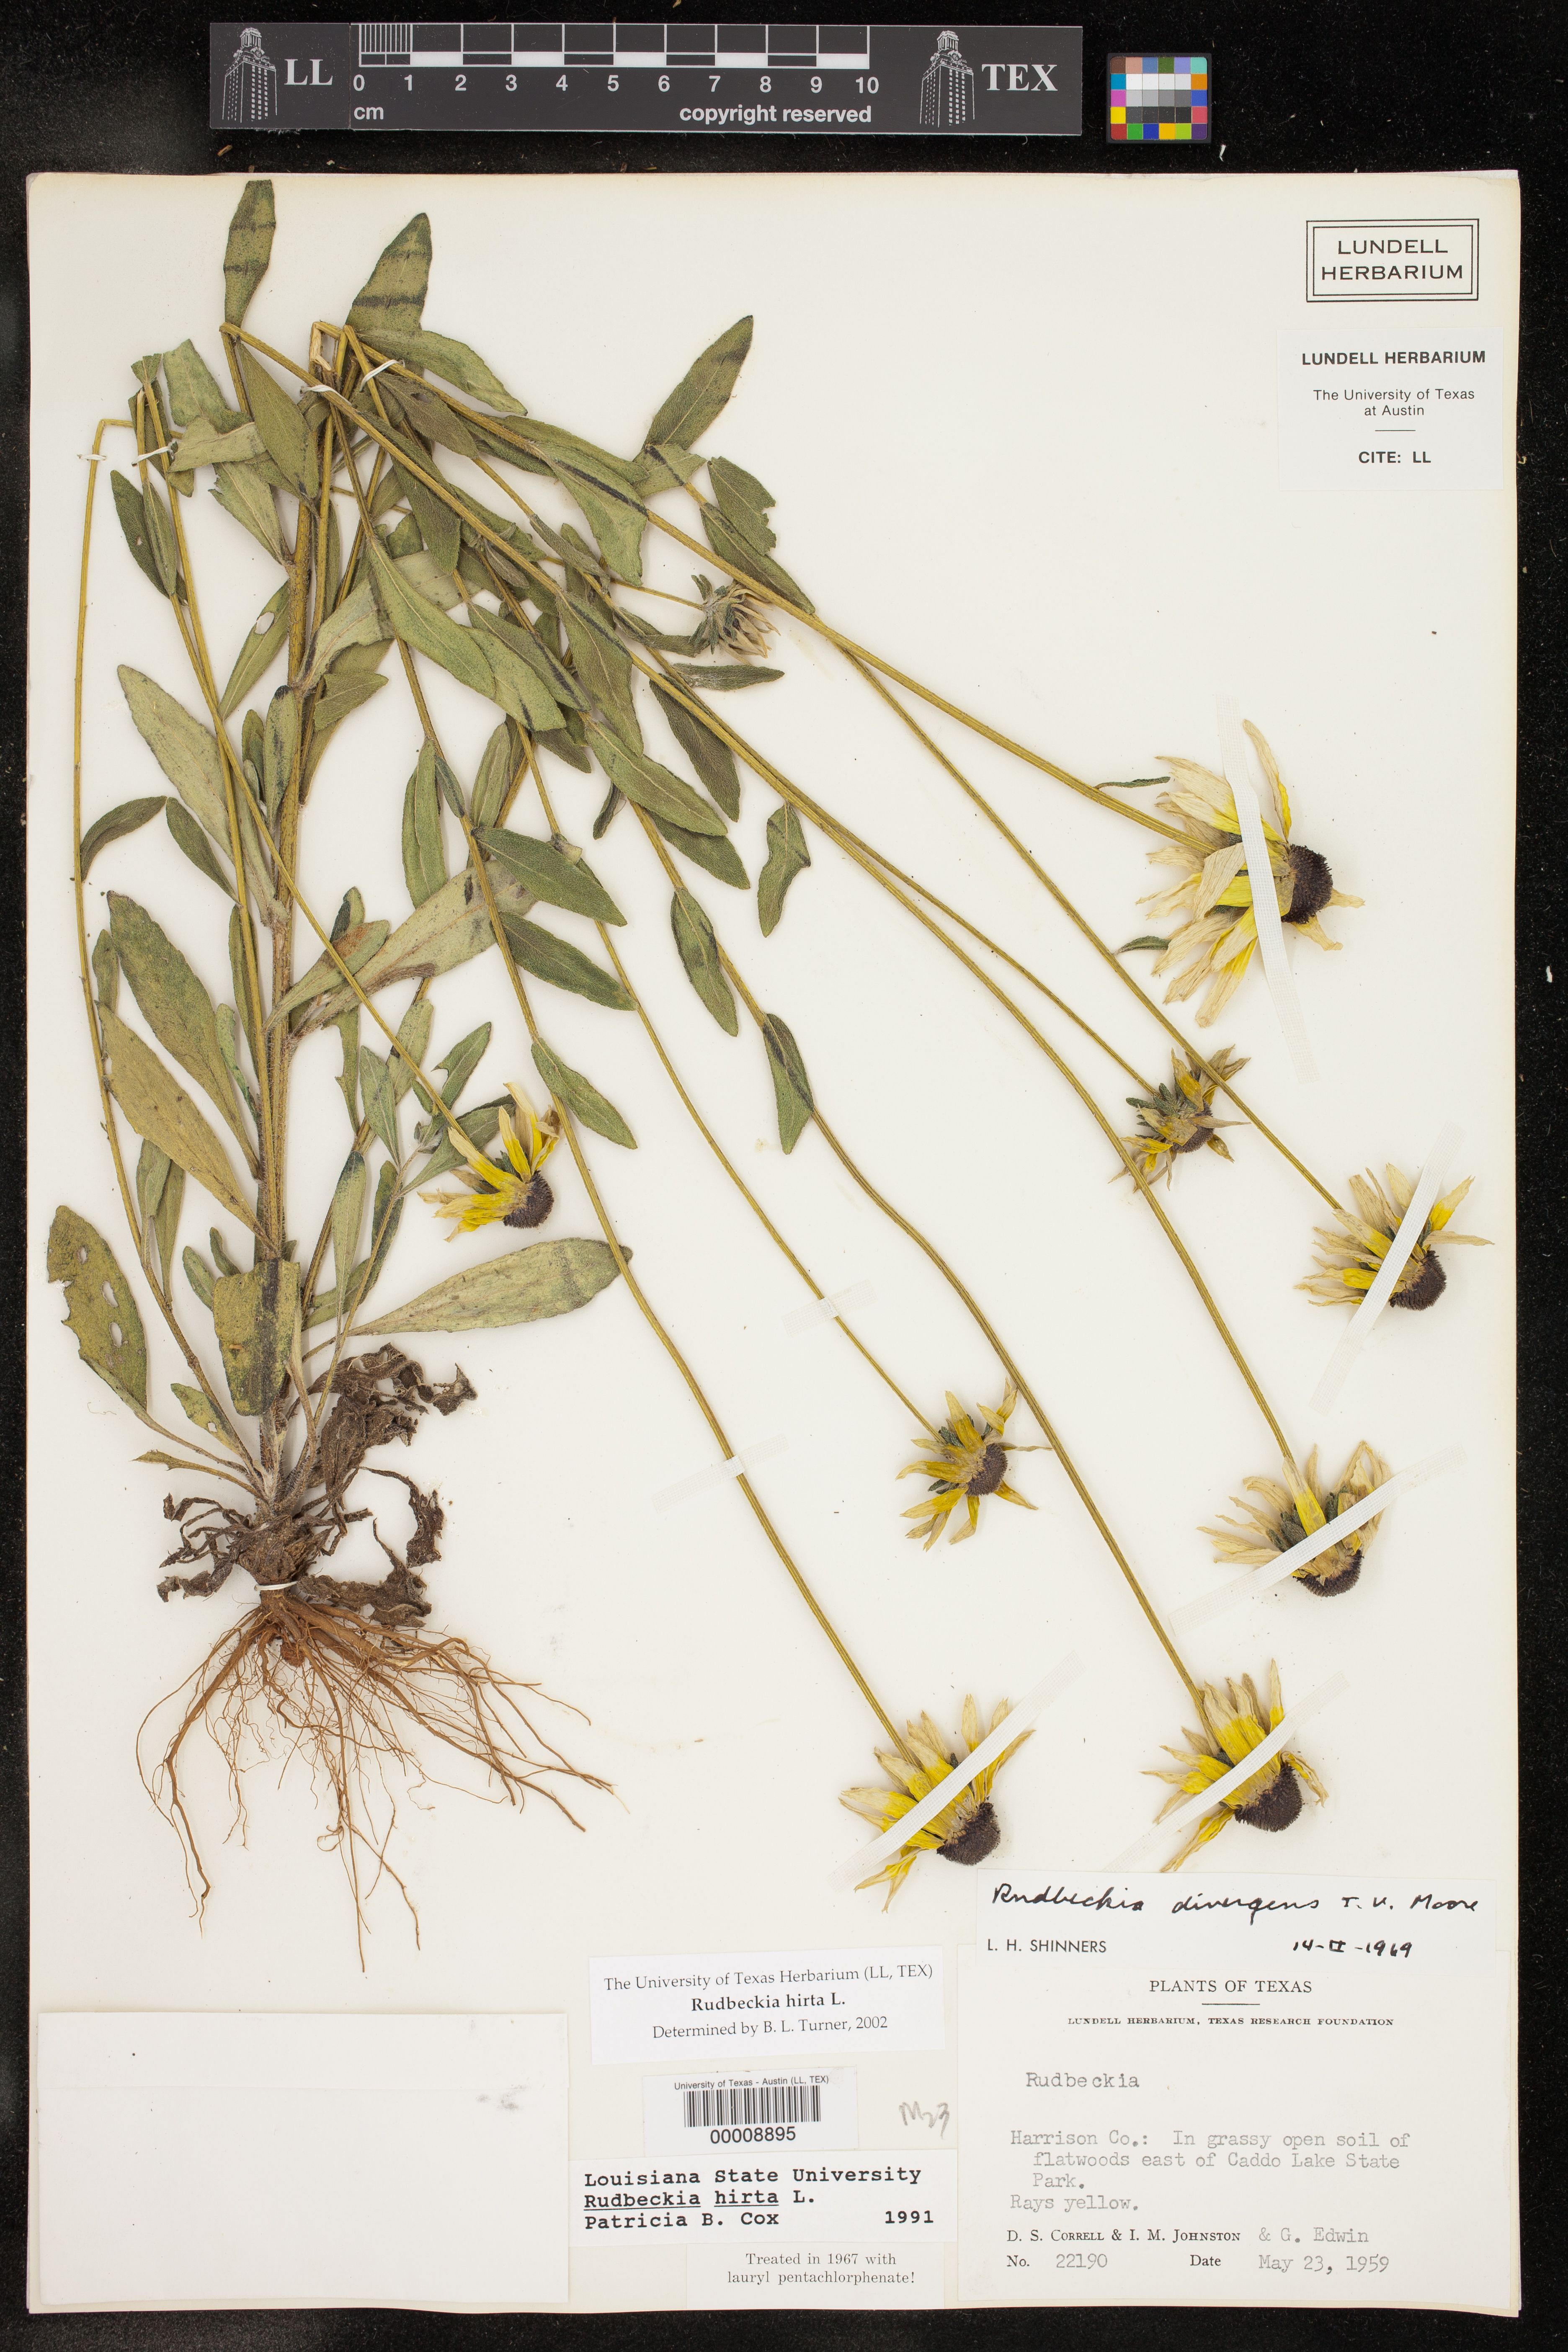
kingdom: Plantae
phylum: Tracheophyta
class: Magnoliopsida
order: Asterales
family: Asteraceae
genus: Rudbeckia
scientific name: Rudbeckia hirta
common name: Black-eyed-susan
